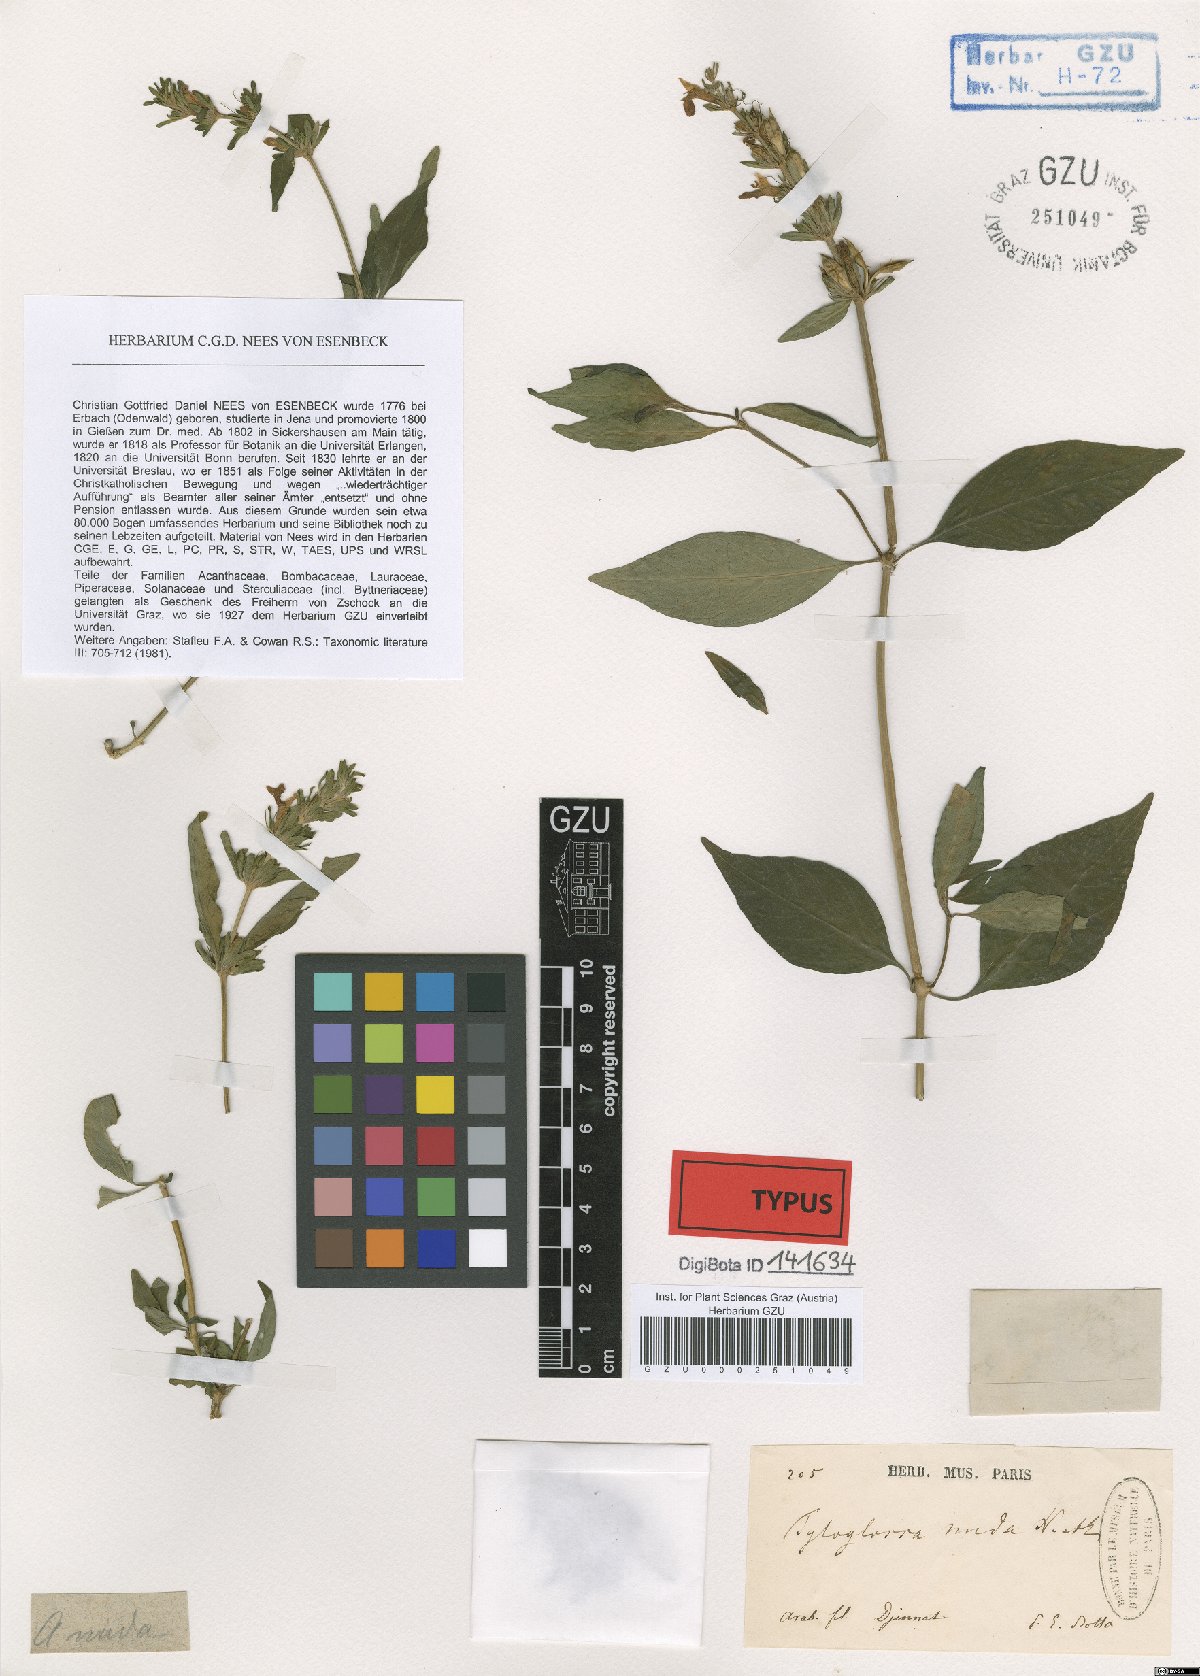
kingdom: Plantae
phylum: Tracheophyta
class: Magnoliopsida
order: Lamiales
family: Acanthaceae
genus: Champluviera
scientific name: Champluviera nuda
